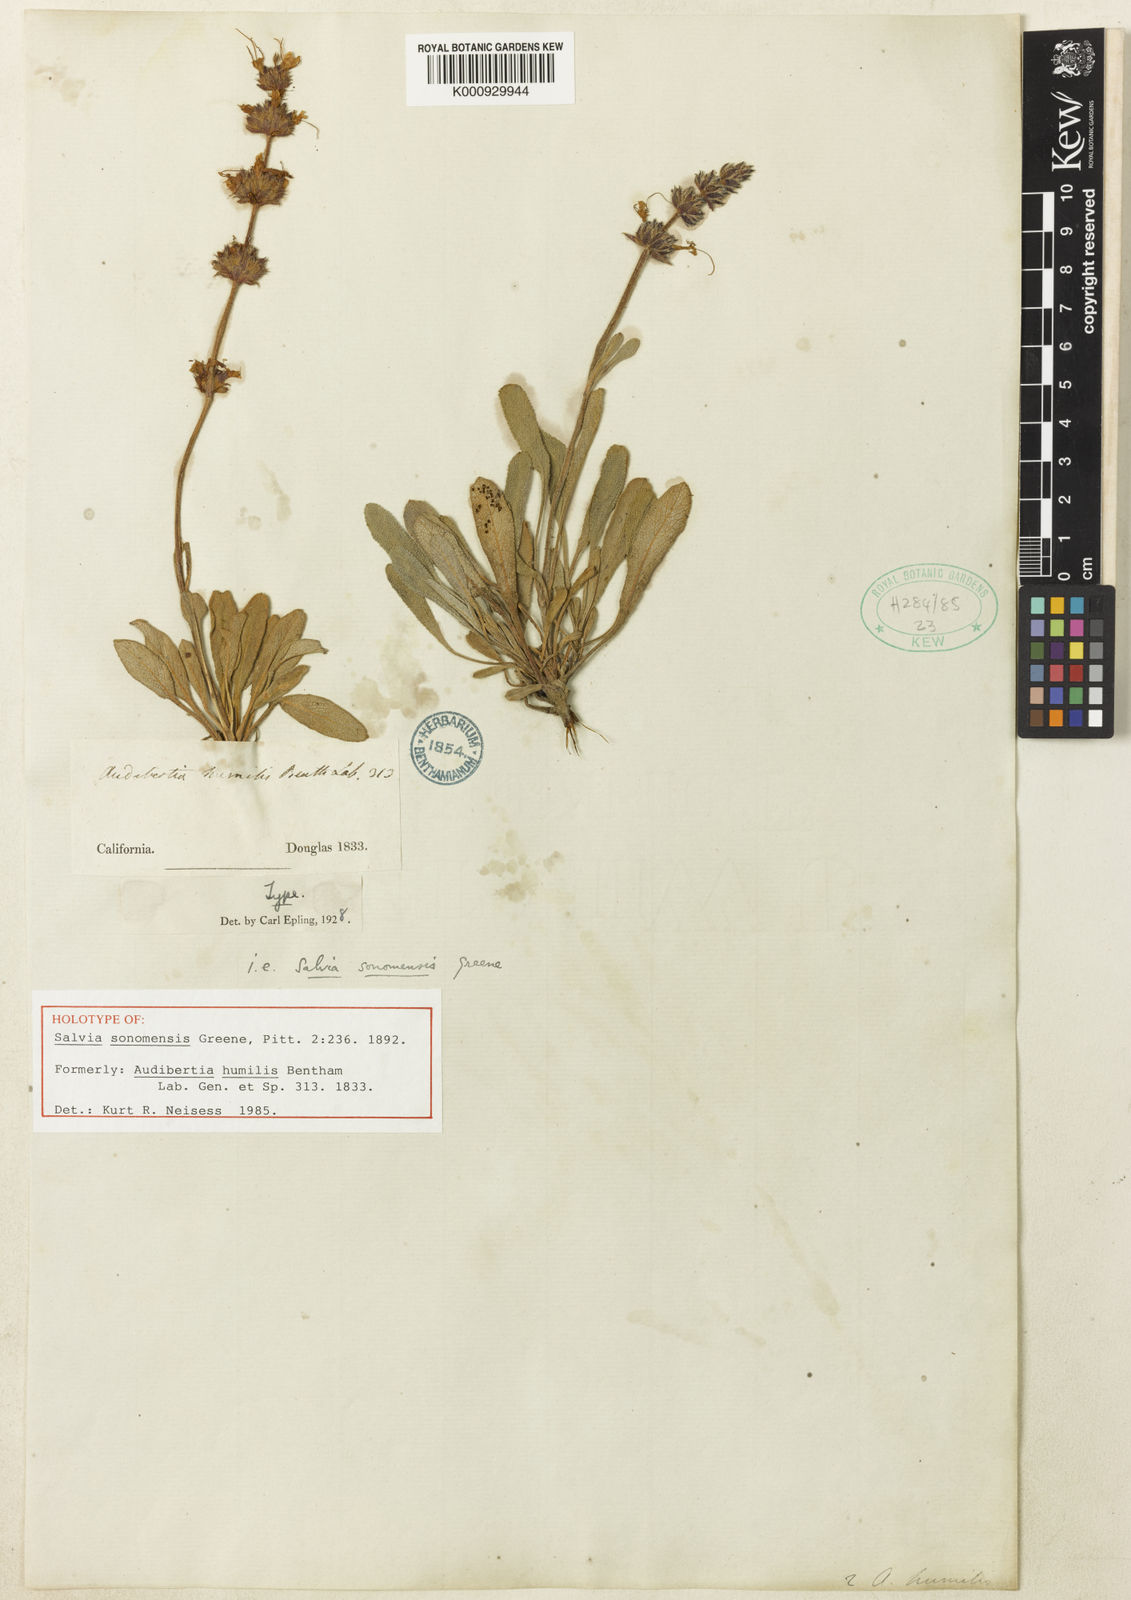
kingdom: Plantae
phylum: Tracheophyta
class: Magnoliopsida
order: Lamiales
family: Lamiaceae
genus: Salvia
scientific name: Salvia sonomensis
